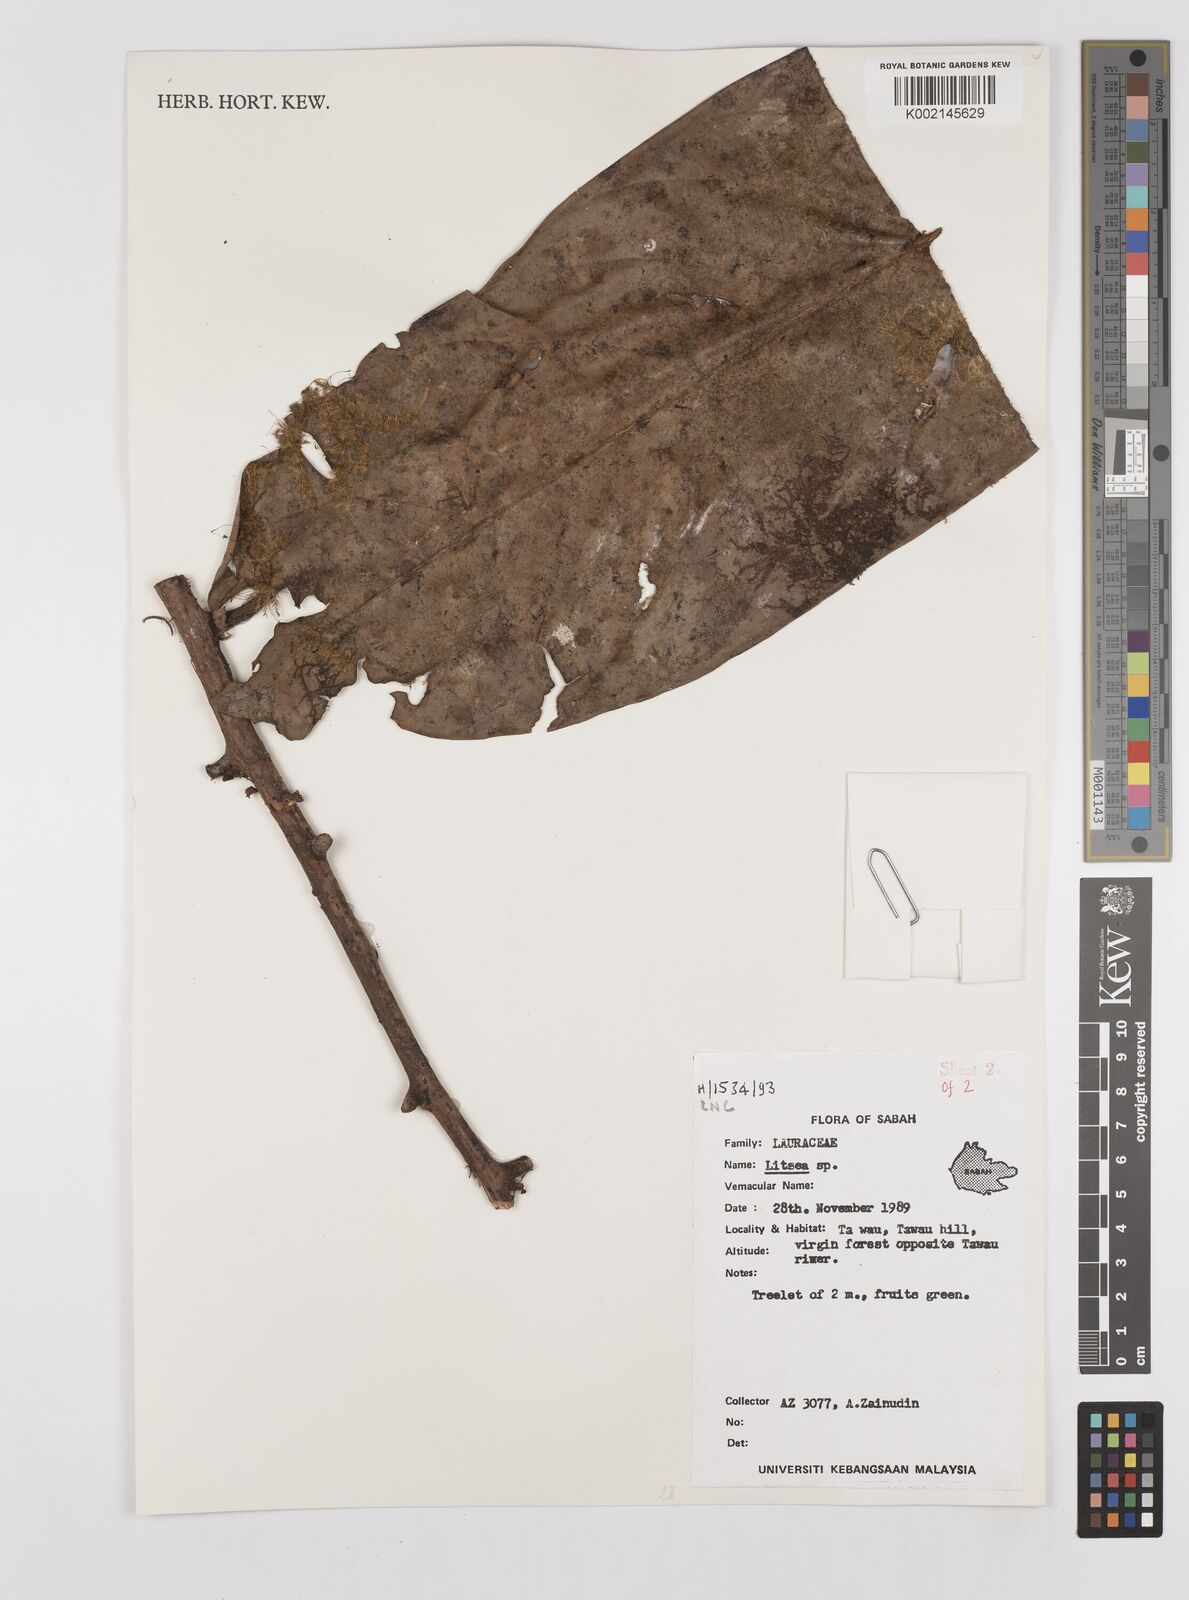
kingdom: Plantae
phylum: Tracheophyta
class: Magnoliopsida
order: Laurales
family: Lauraceae
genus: Litsea
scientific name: Litsea
